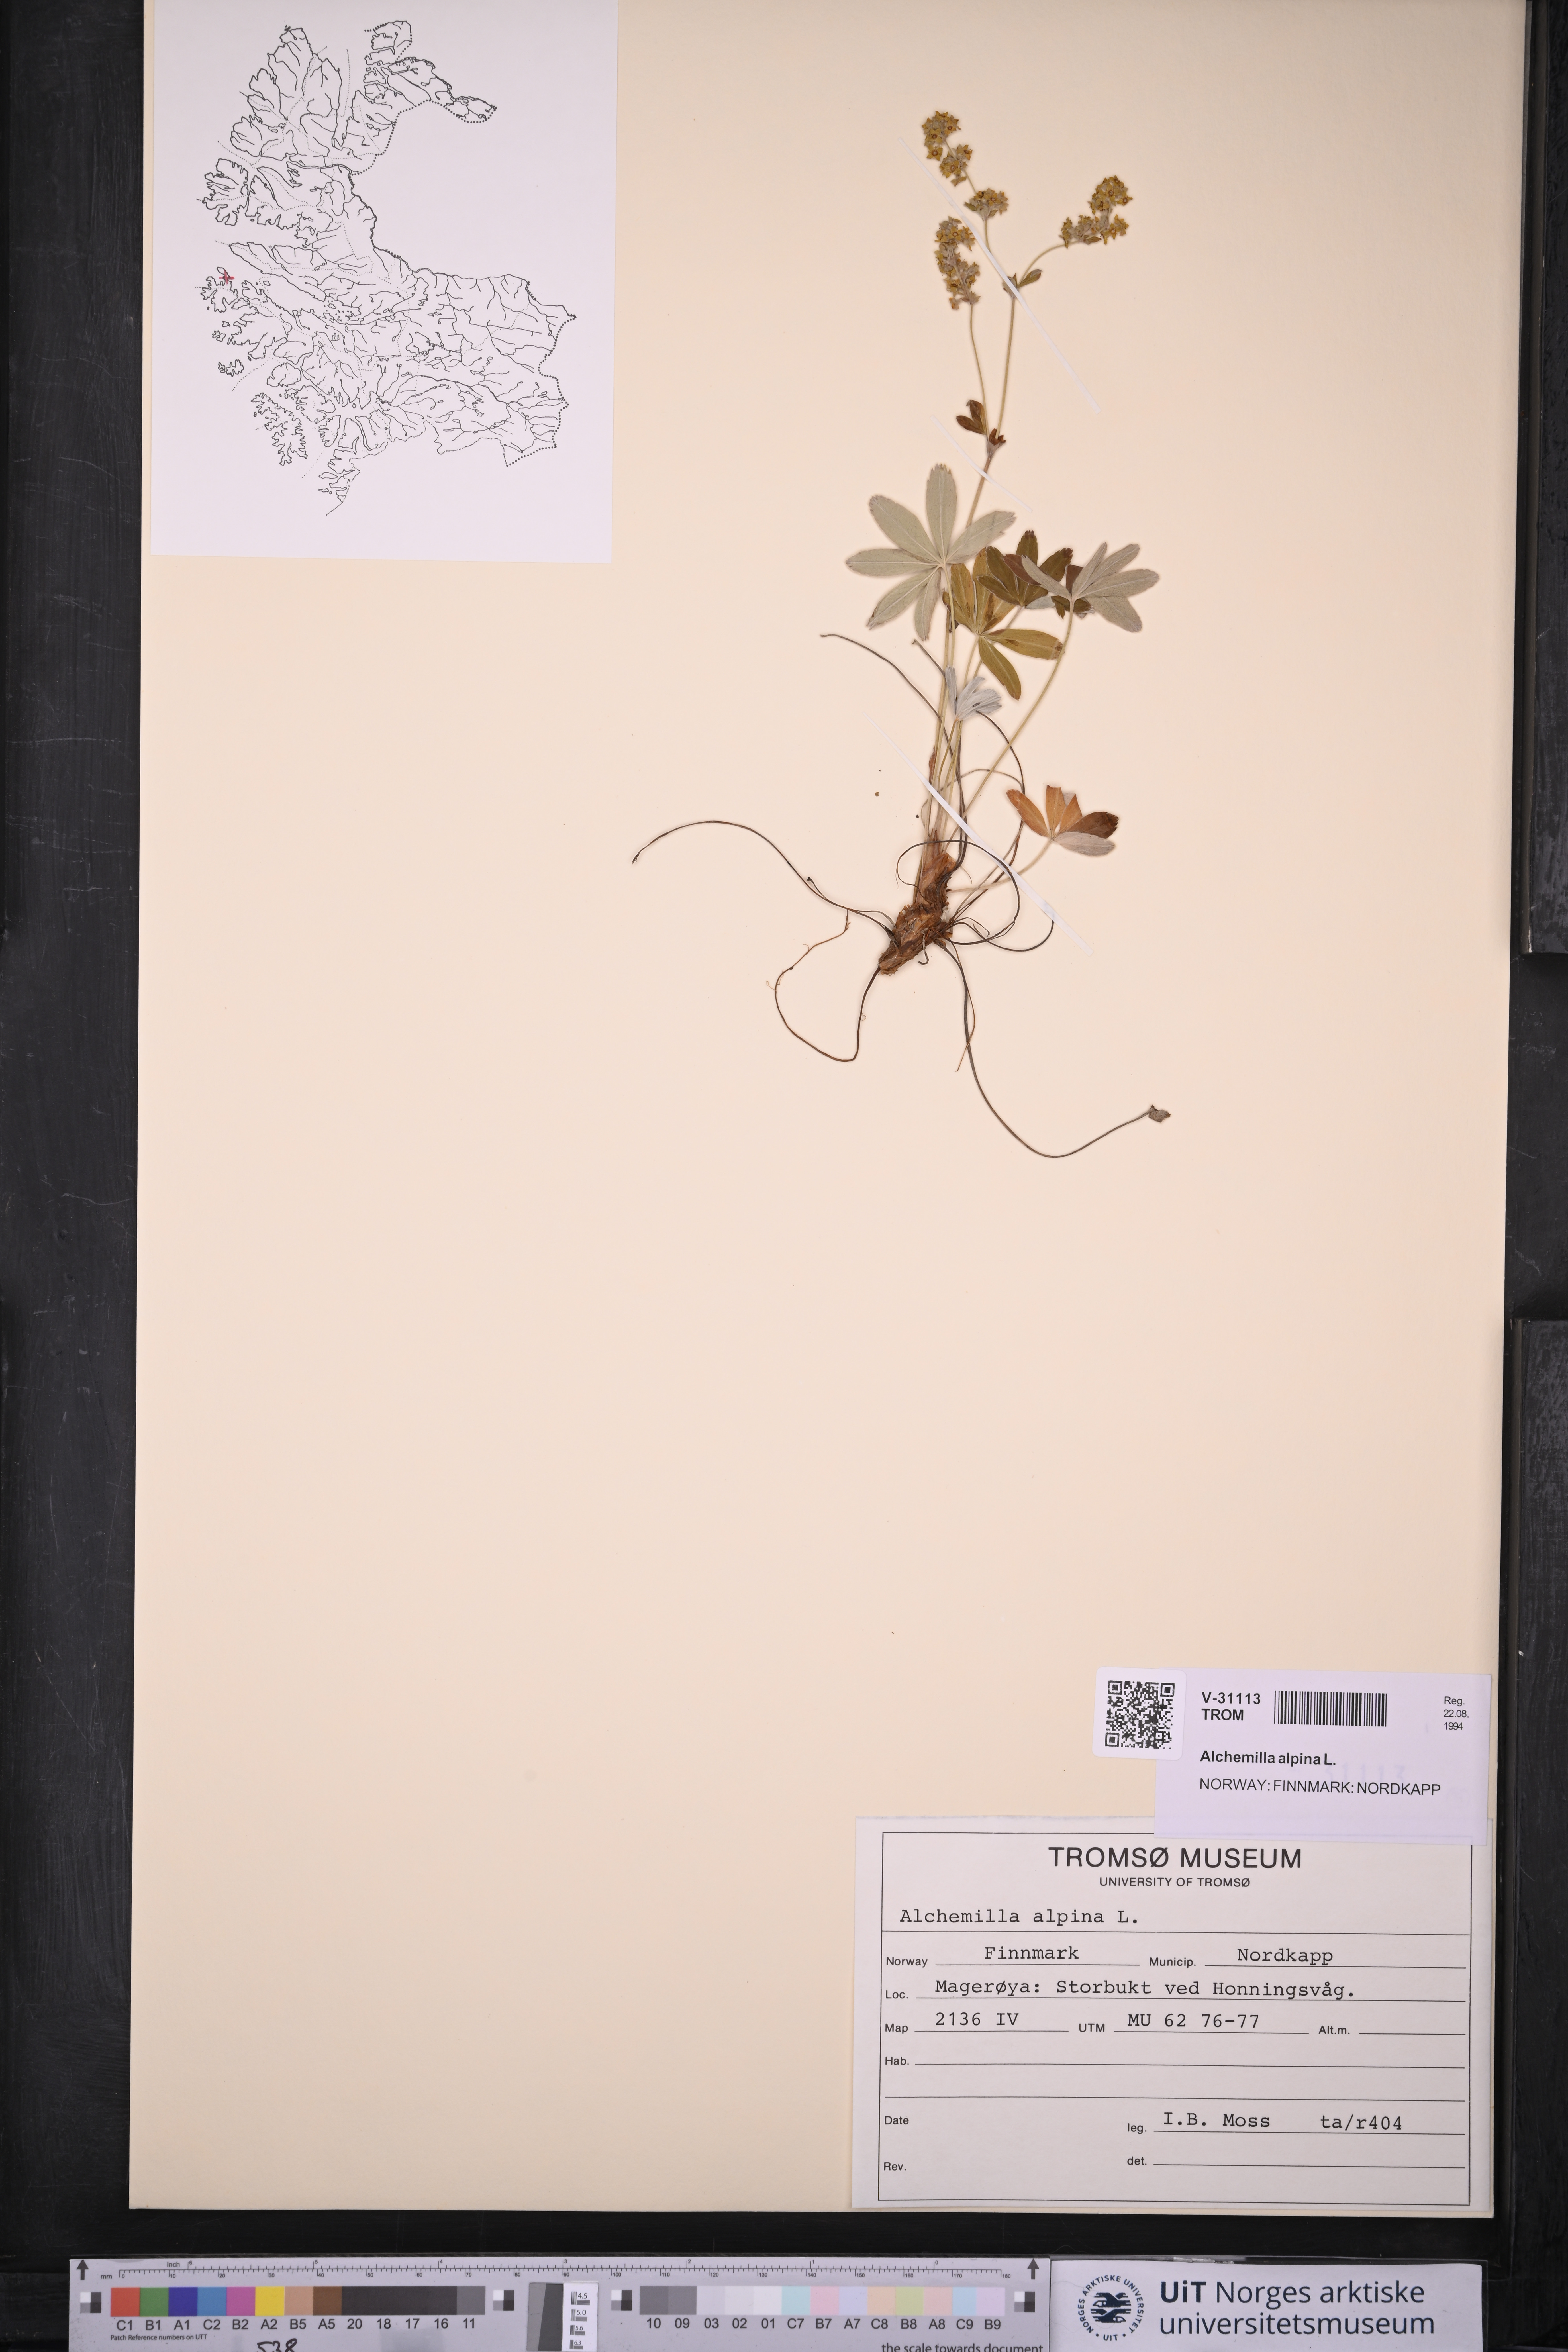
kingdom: Plantae
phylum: Tracheophyta
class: Magnoliopsida
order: Rosales
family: Rosaceae
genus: Alchemilla
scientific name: Alchemilla alpina
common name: Alpine lady's-mantle
